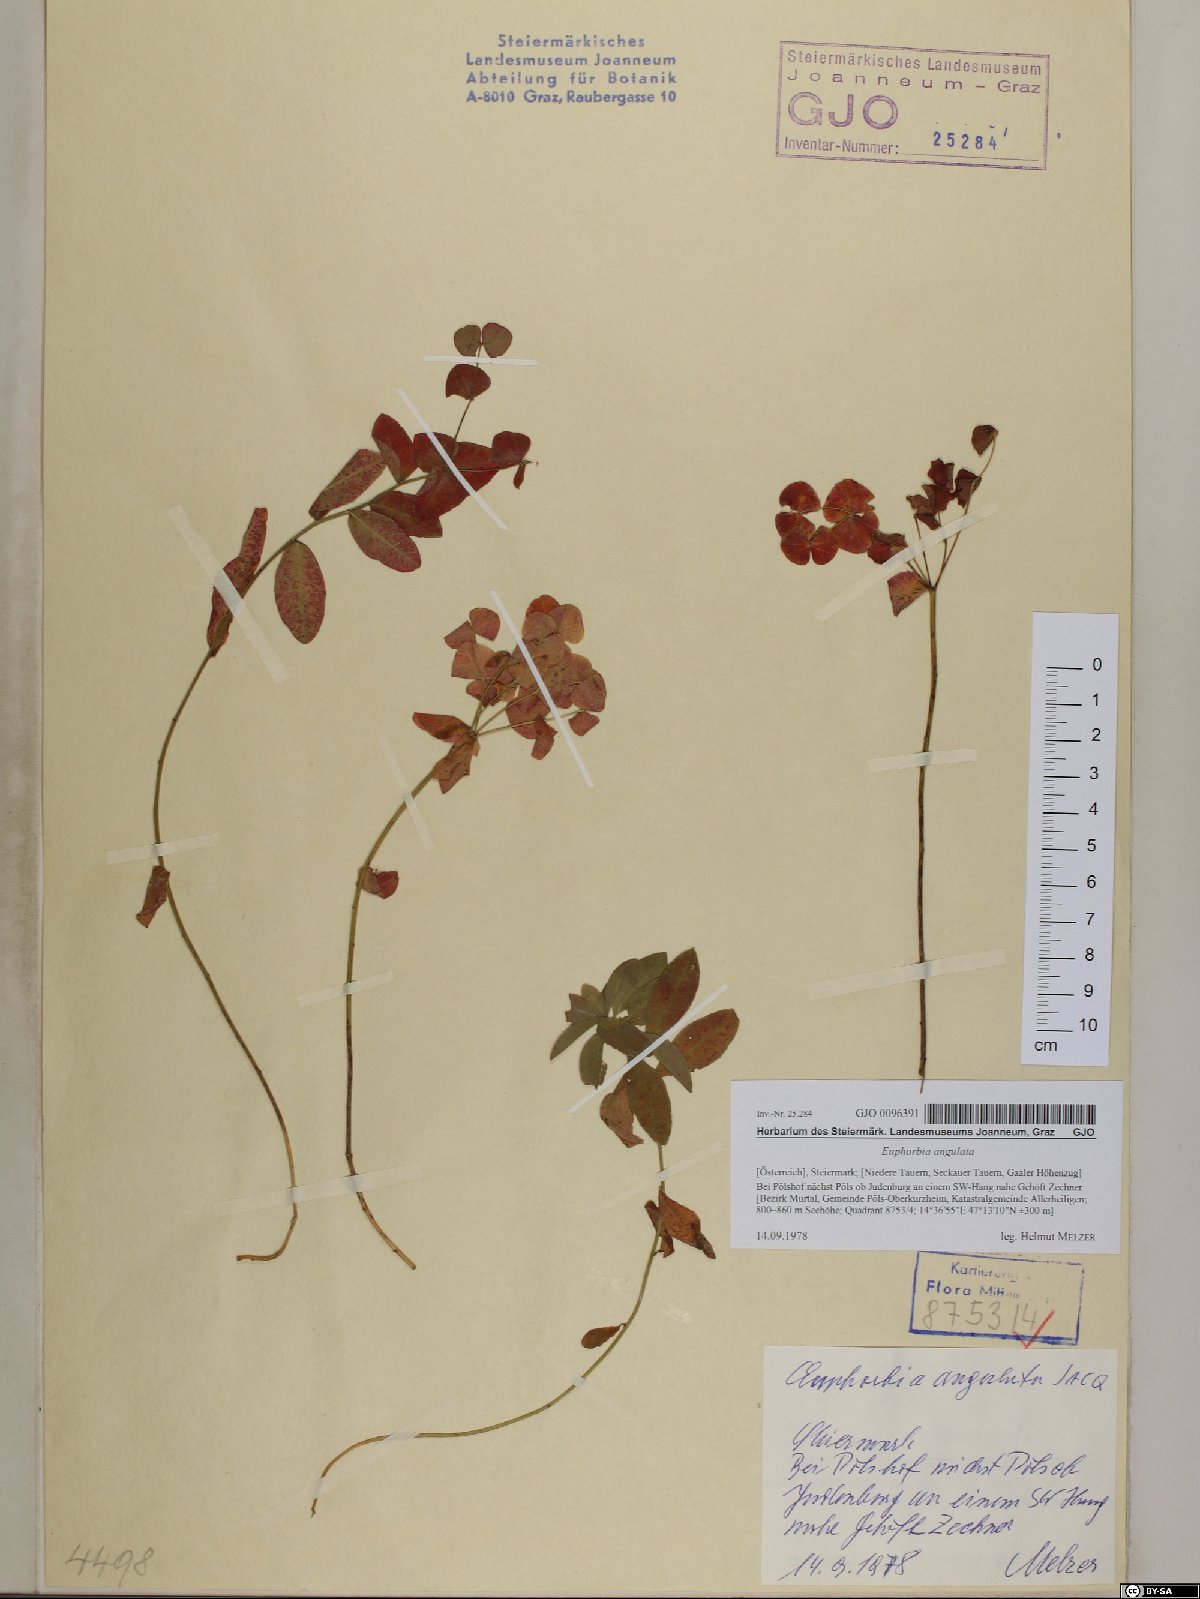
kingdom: Plantae
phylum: Tracheophyta
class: Magnoliopsida
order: Malpighiales
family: Euphorbiaceae
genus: Euphorbia
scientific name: Euphorbia angulata
